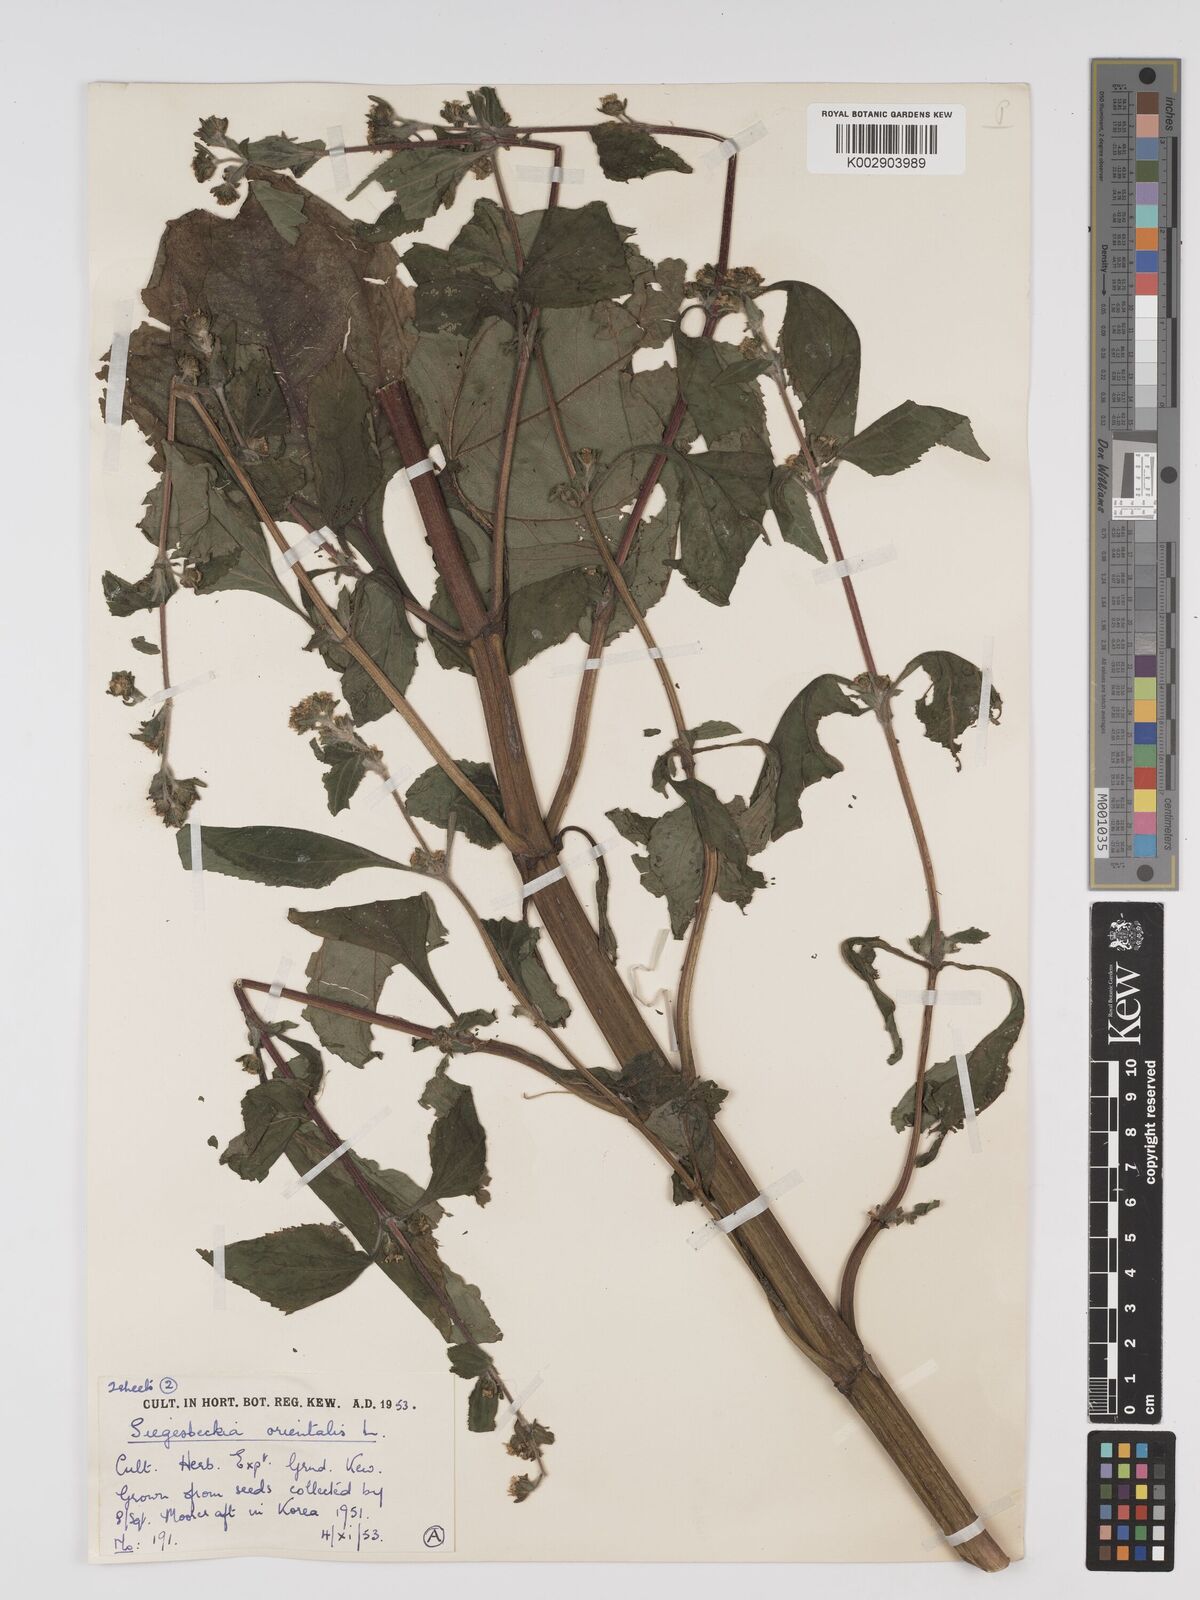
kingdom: Plantae
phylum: Tracheophyta
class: Magnoliopsida
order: Asterales
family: Asteraceae
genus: Sigesbeckia
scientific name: Sigesbeckia orientalis
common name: Eastern st paul's-wort
